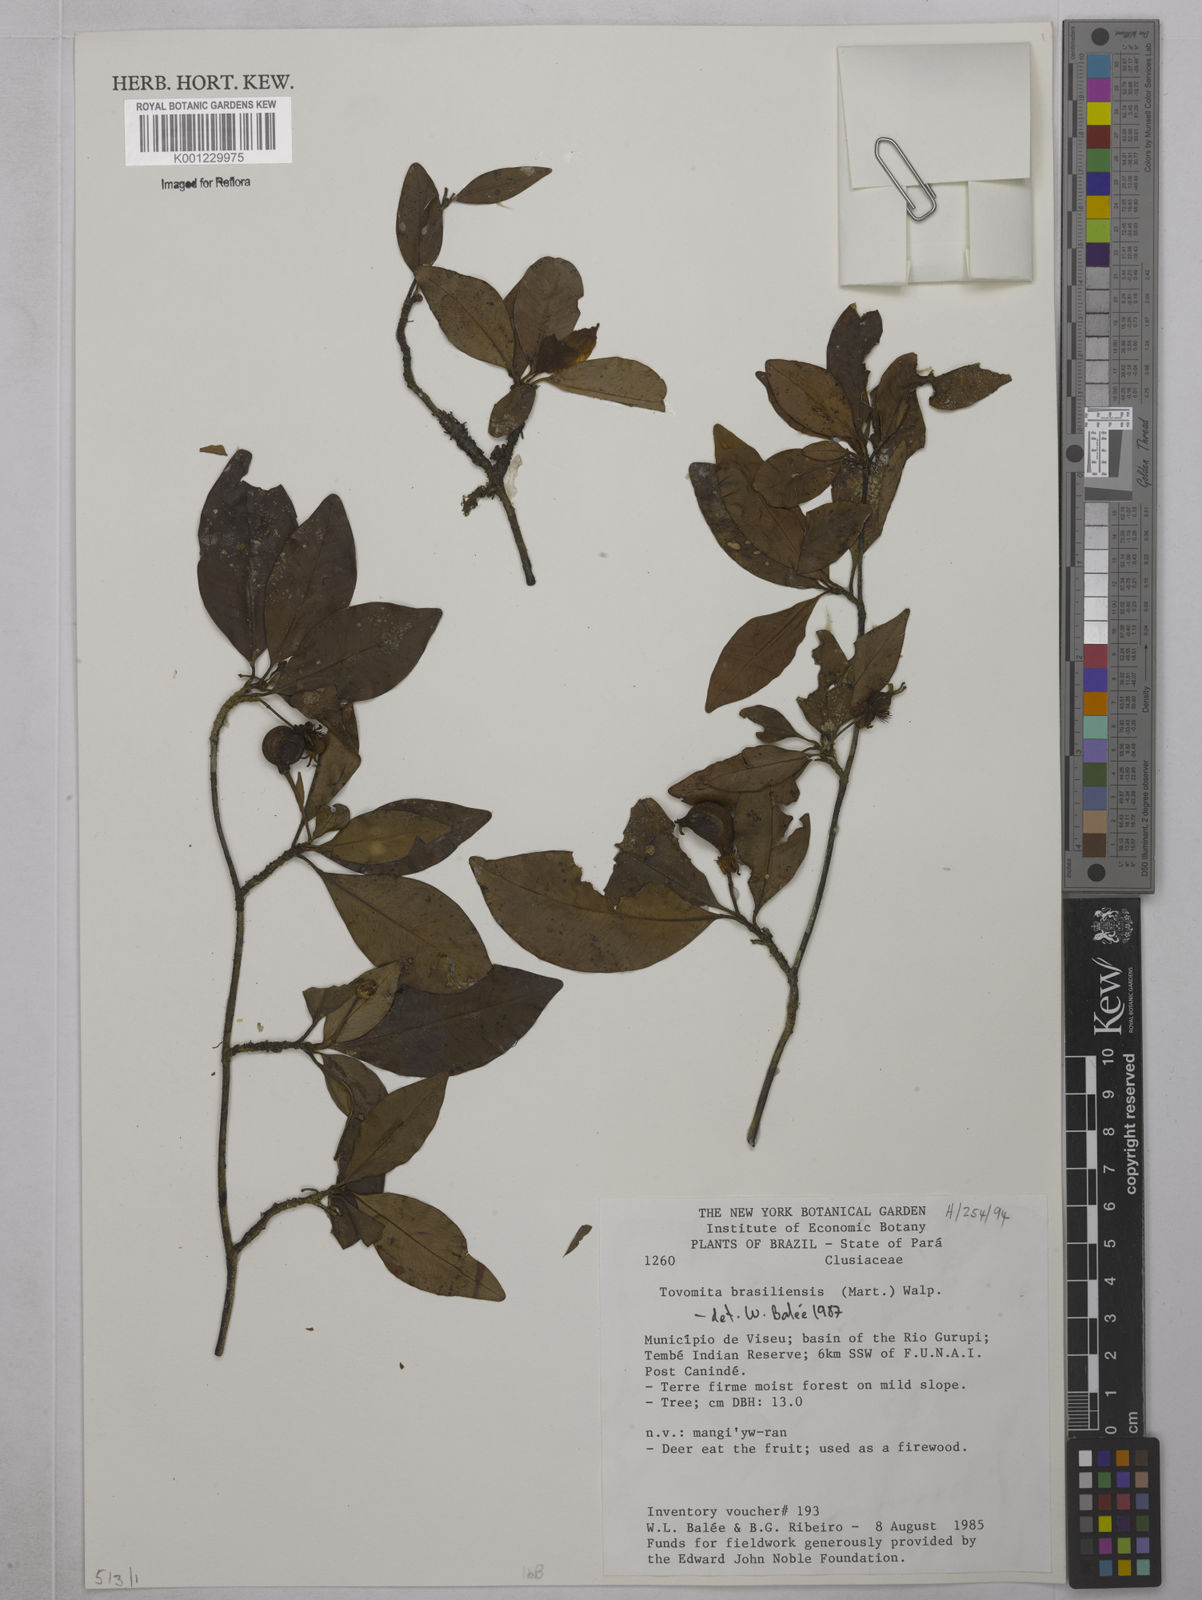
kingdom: Plantae
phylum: Tracheophyta
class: Magnoliopsida
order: Malpighiales
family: Clusiaceae
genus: Tovomita
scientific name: Tovomita
